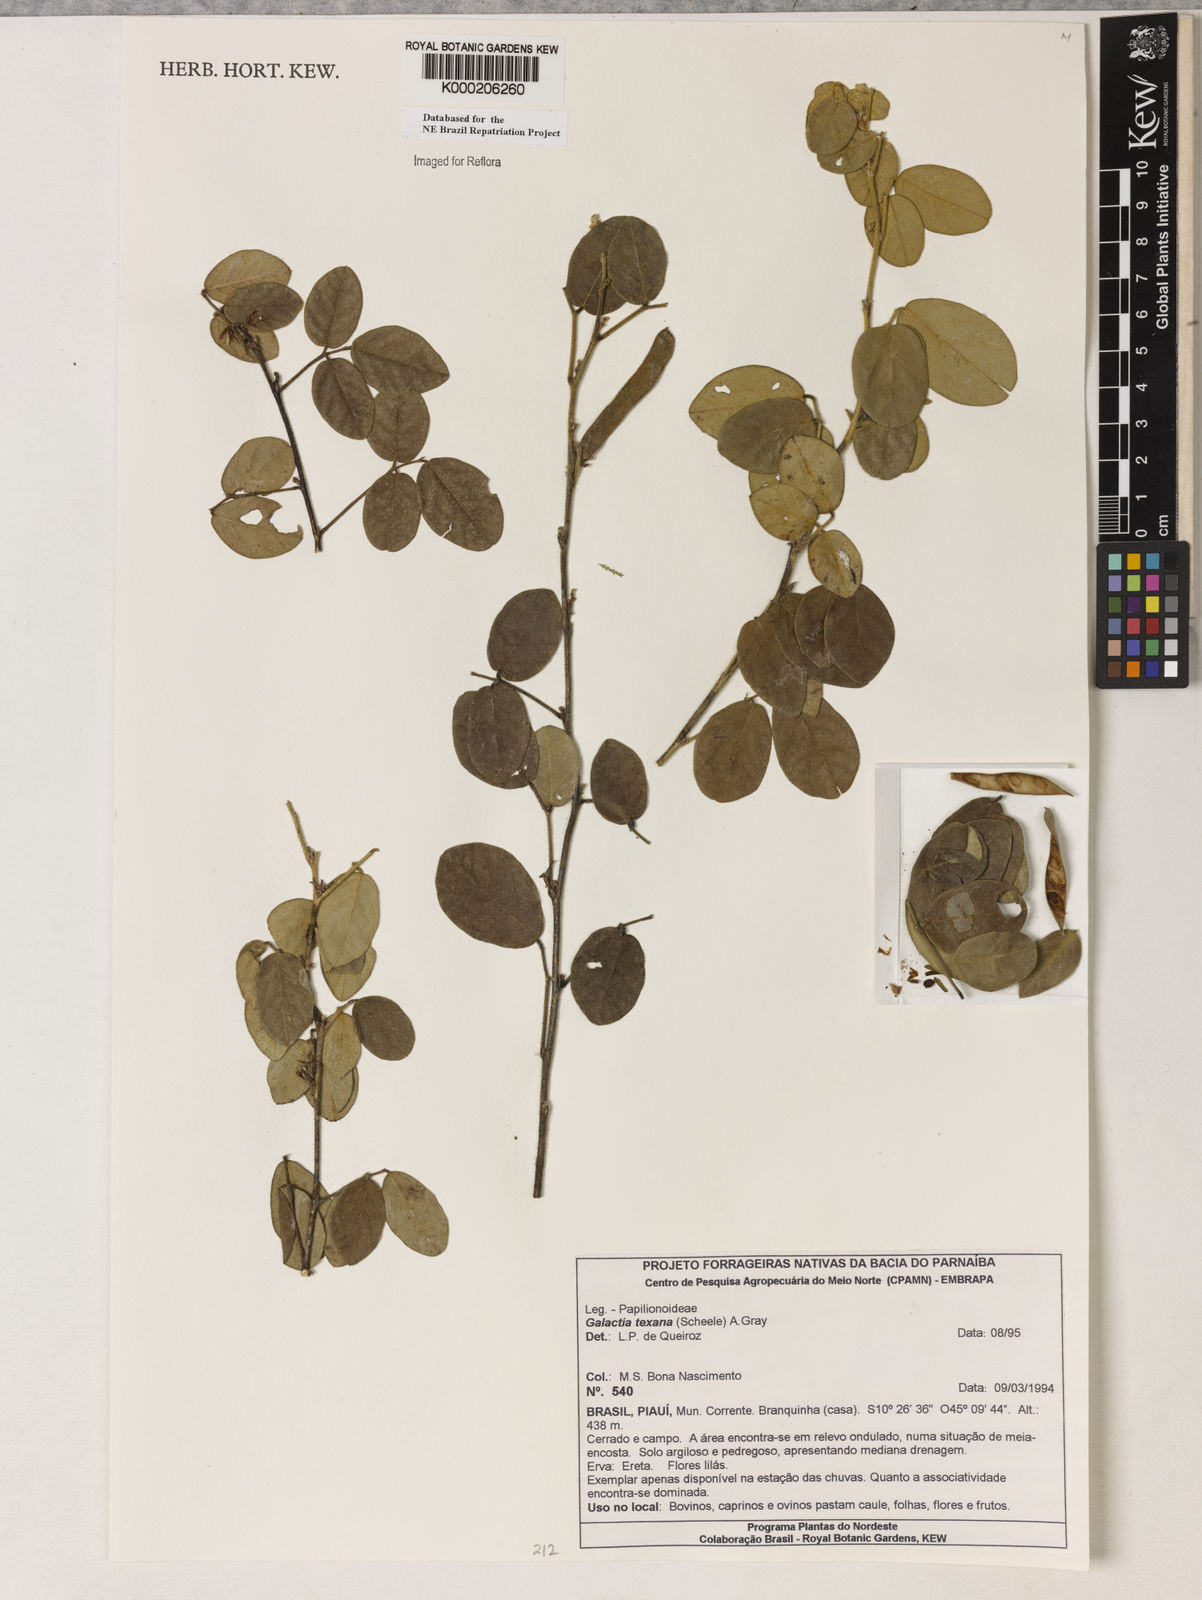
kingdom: Plantae
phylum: Tracheophyta
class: Magnoliopsida
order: Fabales
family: Fabaceae
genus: Galactia
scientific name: Galactia texana
